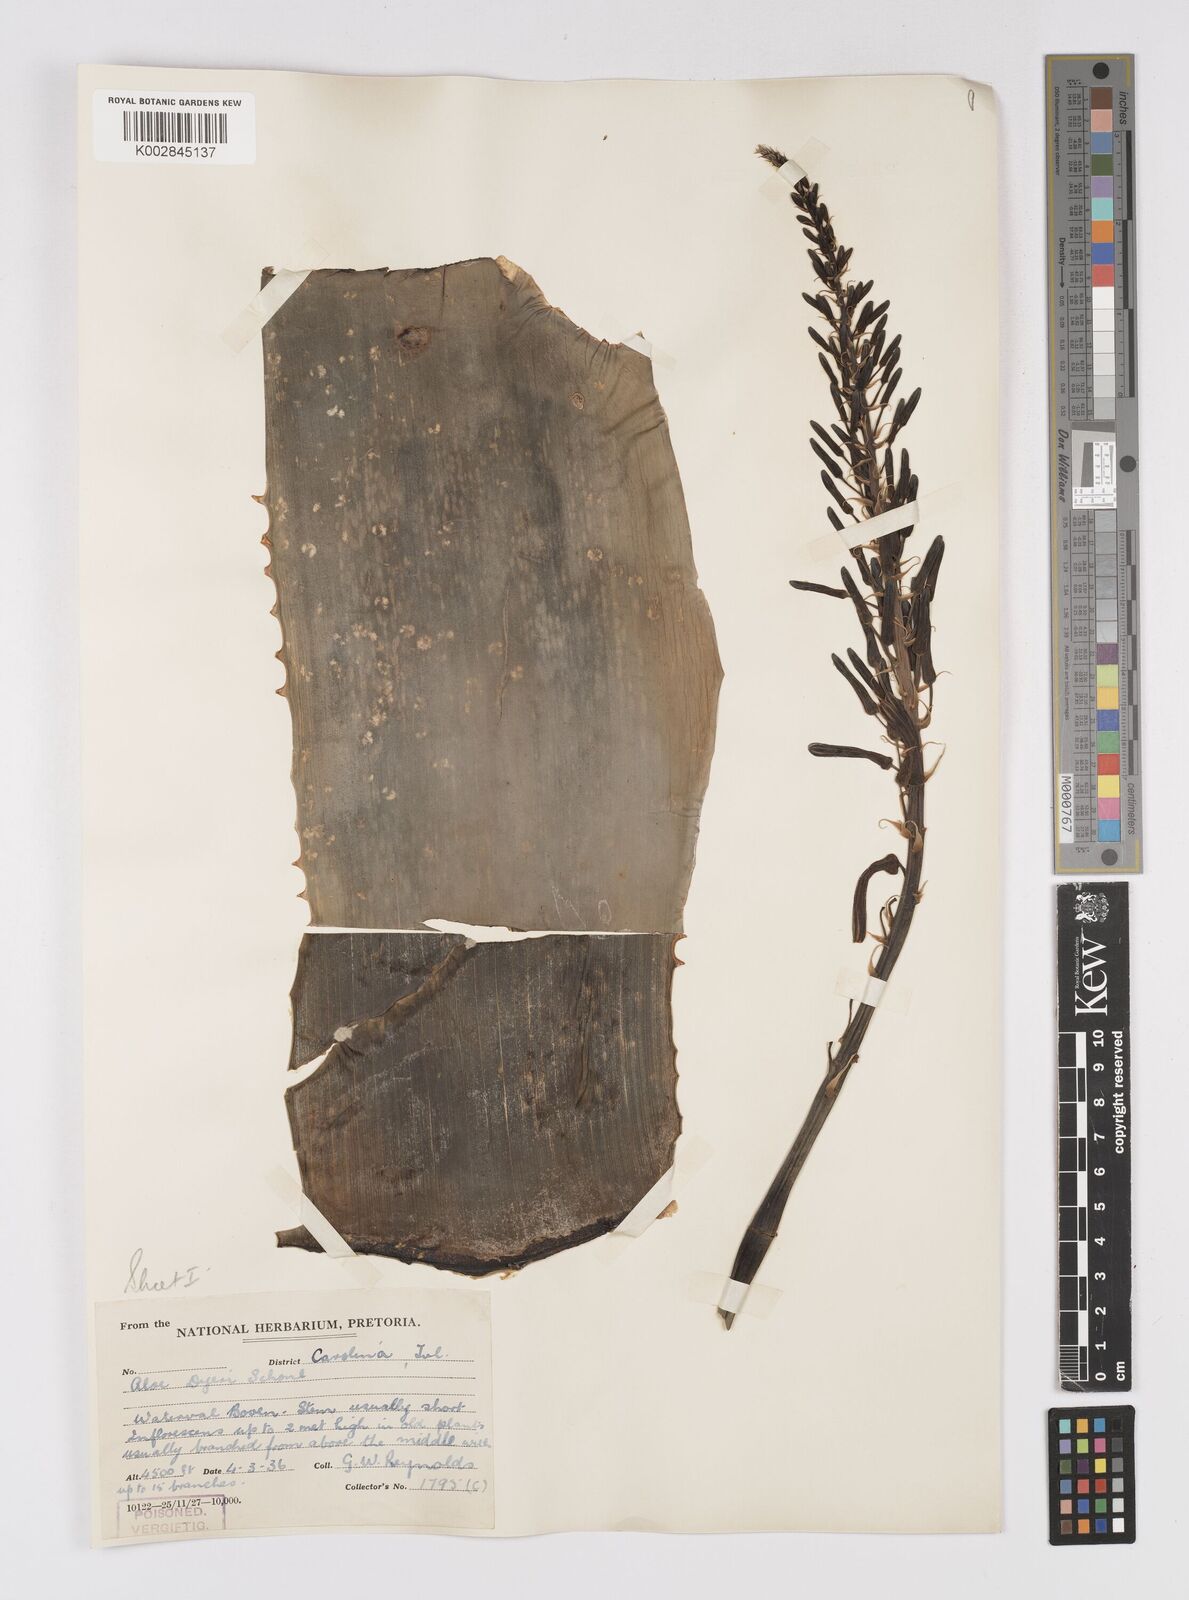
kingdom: Plantae
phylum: Tracheophyta
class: Liliopsida
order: Asparagales
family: Asphodelaceae
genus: Aloe
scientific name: Aloe dyeri
